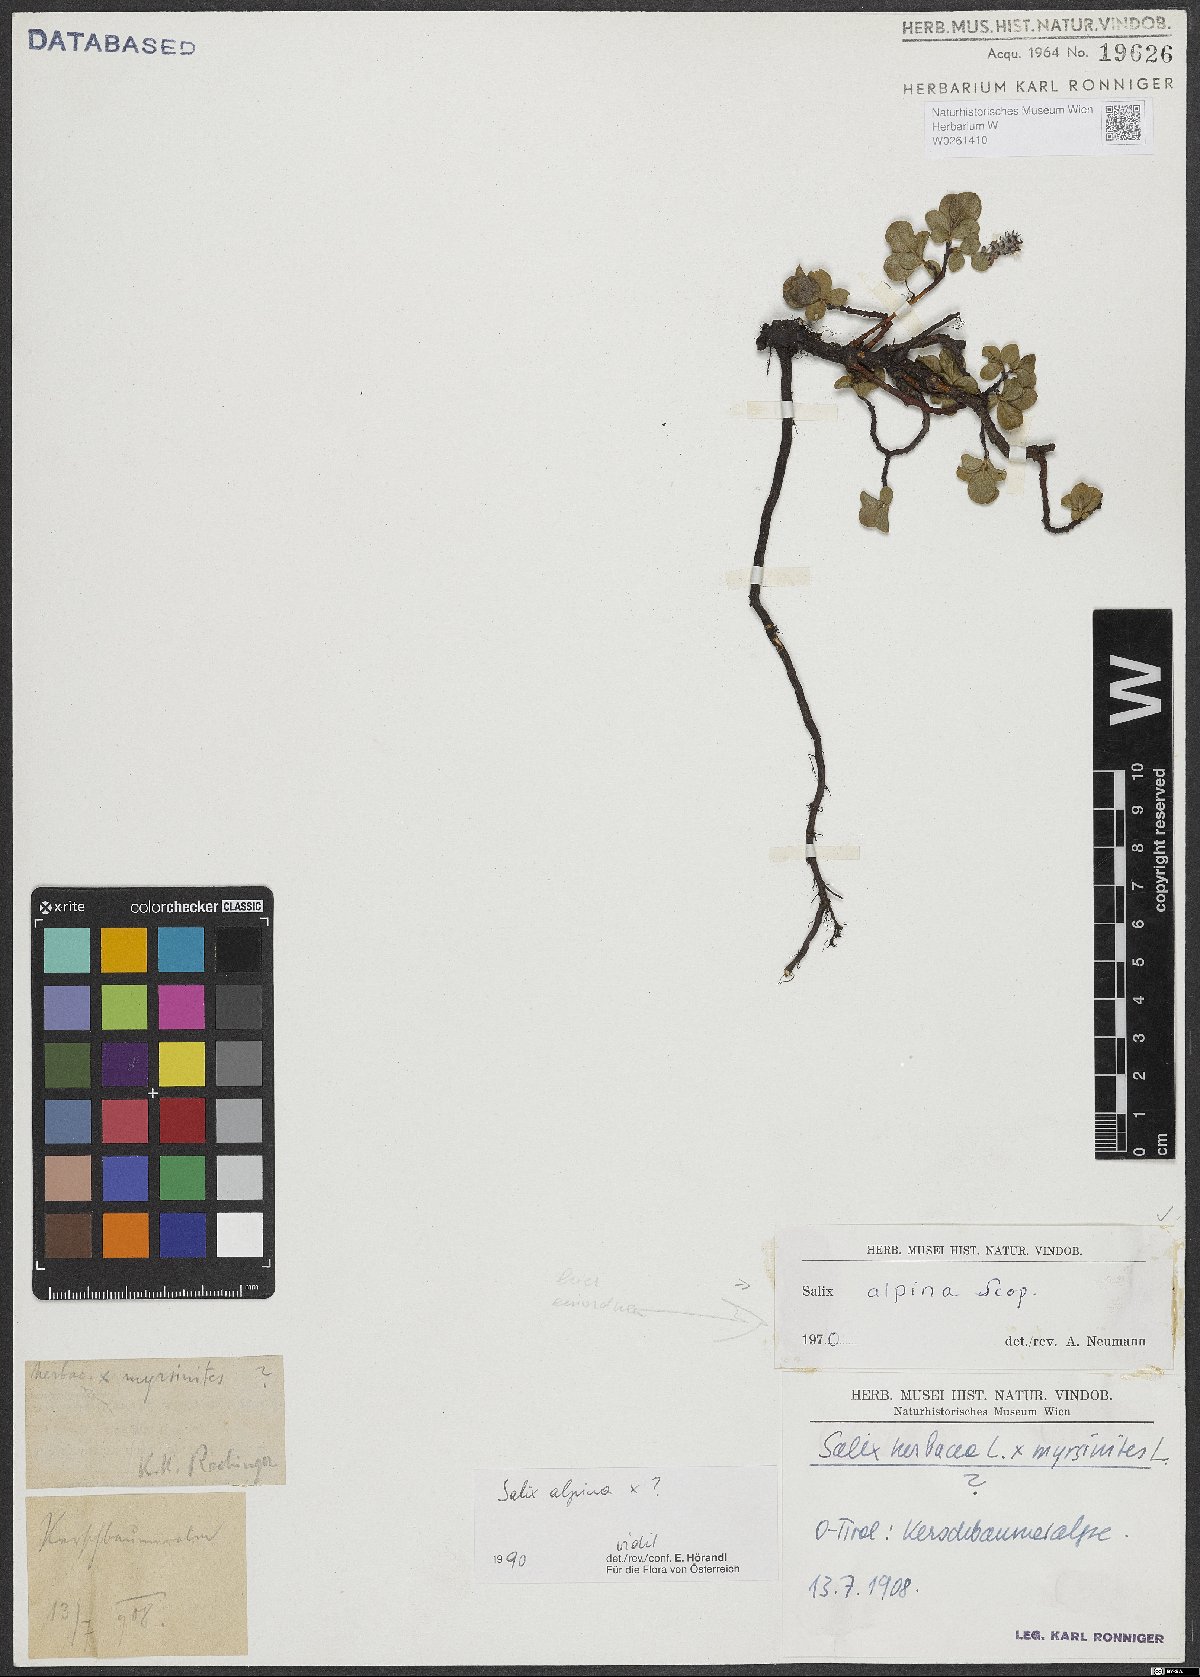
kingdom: Plantae
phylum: Tracheophyta
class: Magnoliopsida
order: Malpighiales
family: Salicaceae
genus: Salix
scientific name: Salix alpina
